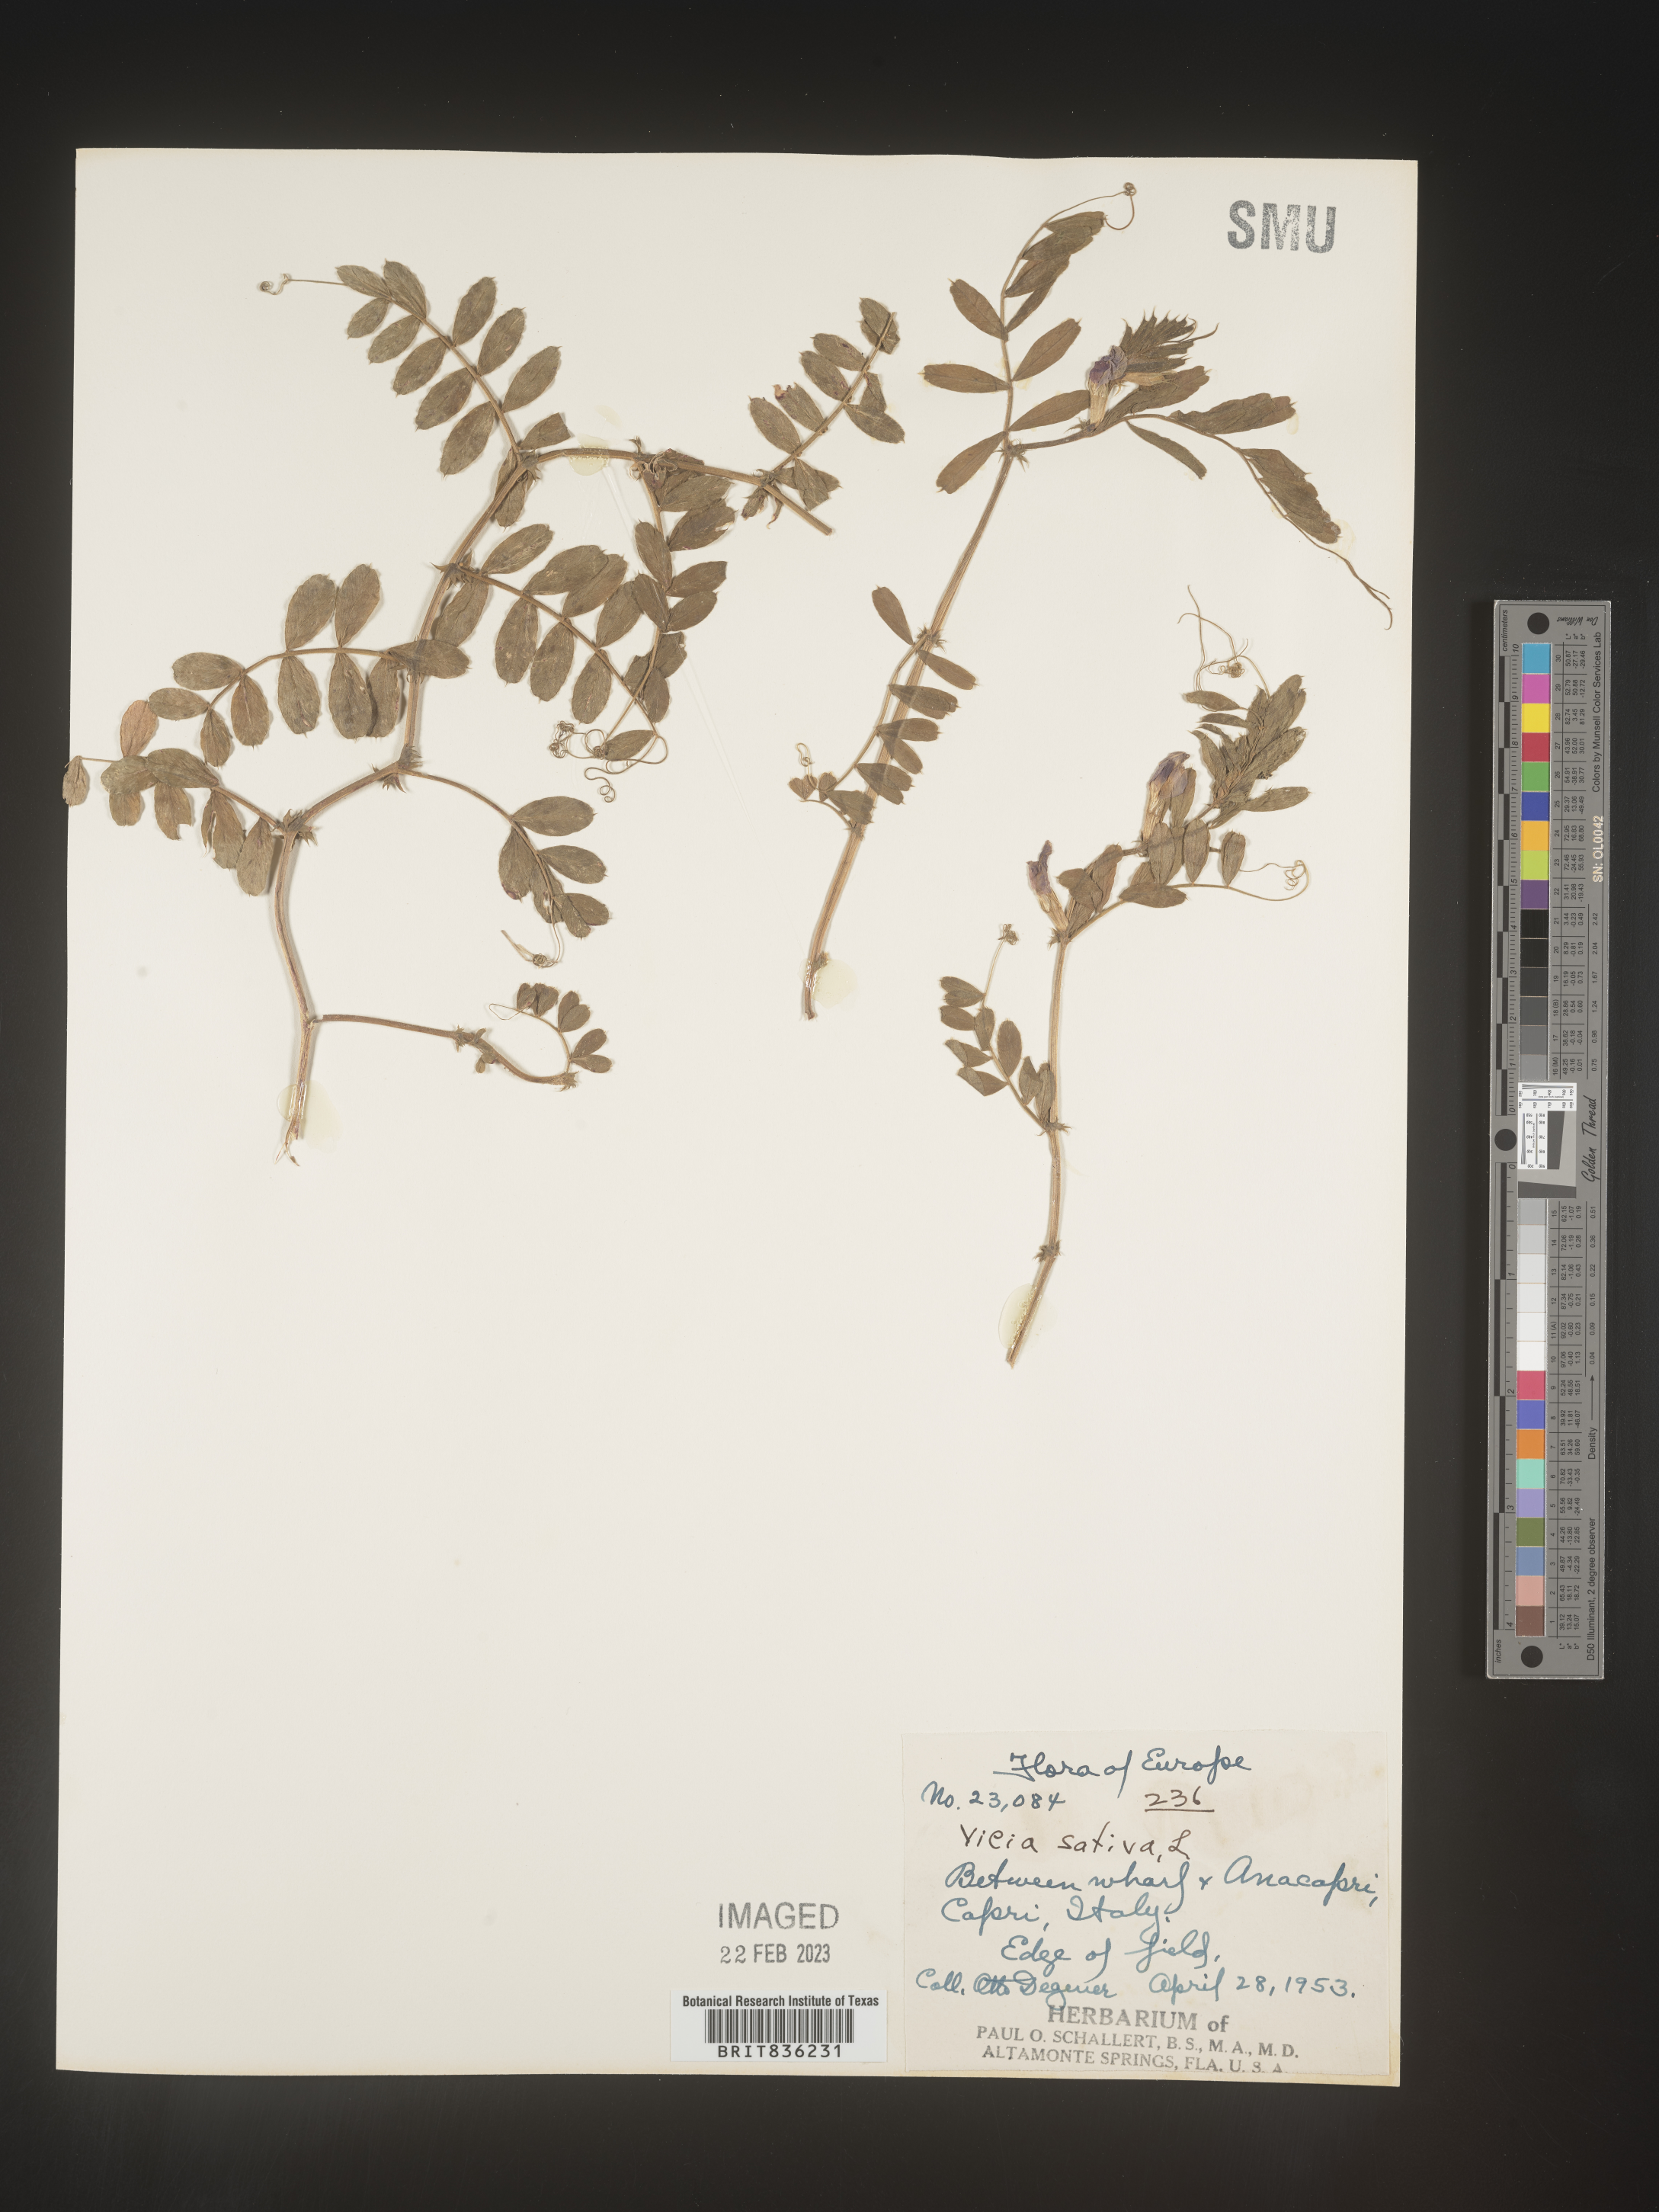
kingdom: Plantae
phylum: Tracheophyta
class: Magnoliopsida
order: Fabales
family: Fabaceae
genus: Vicia
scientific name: Vicia
